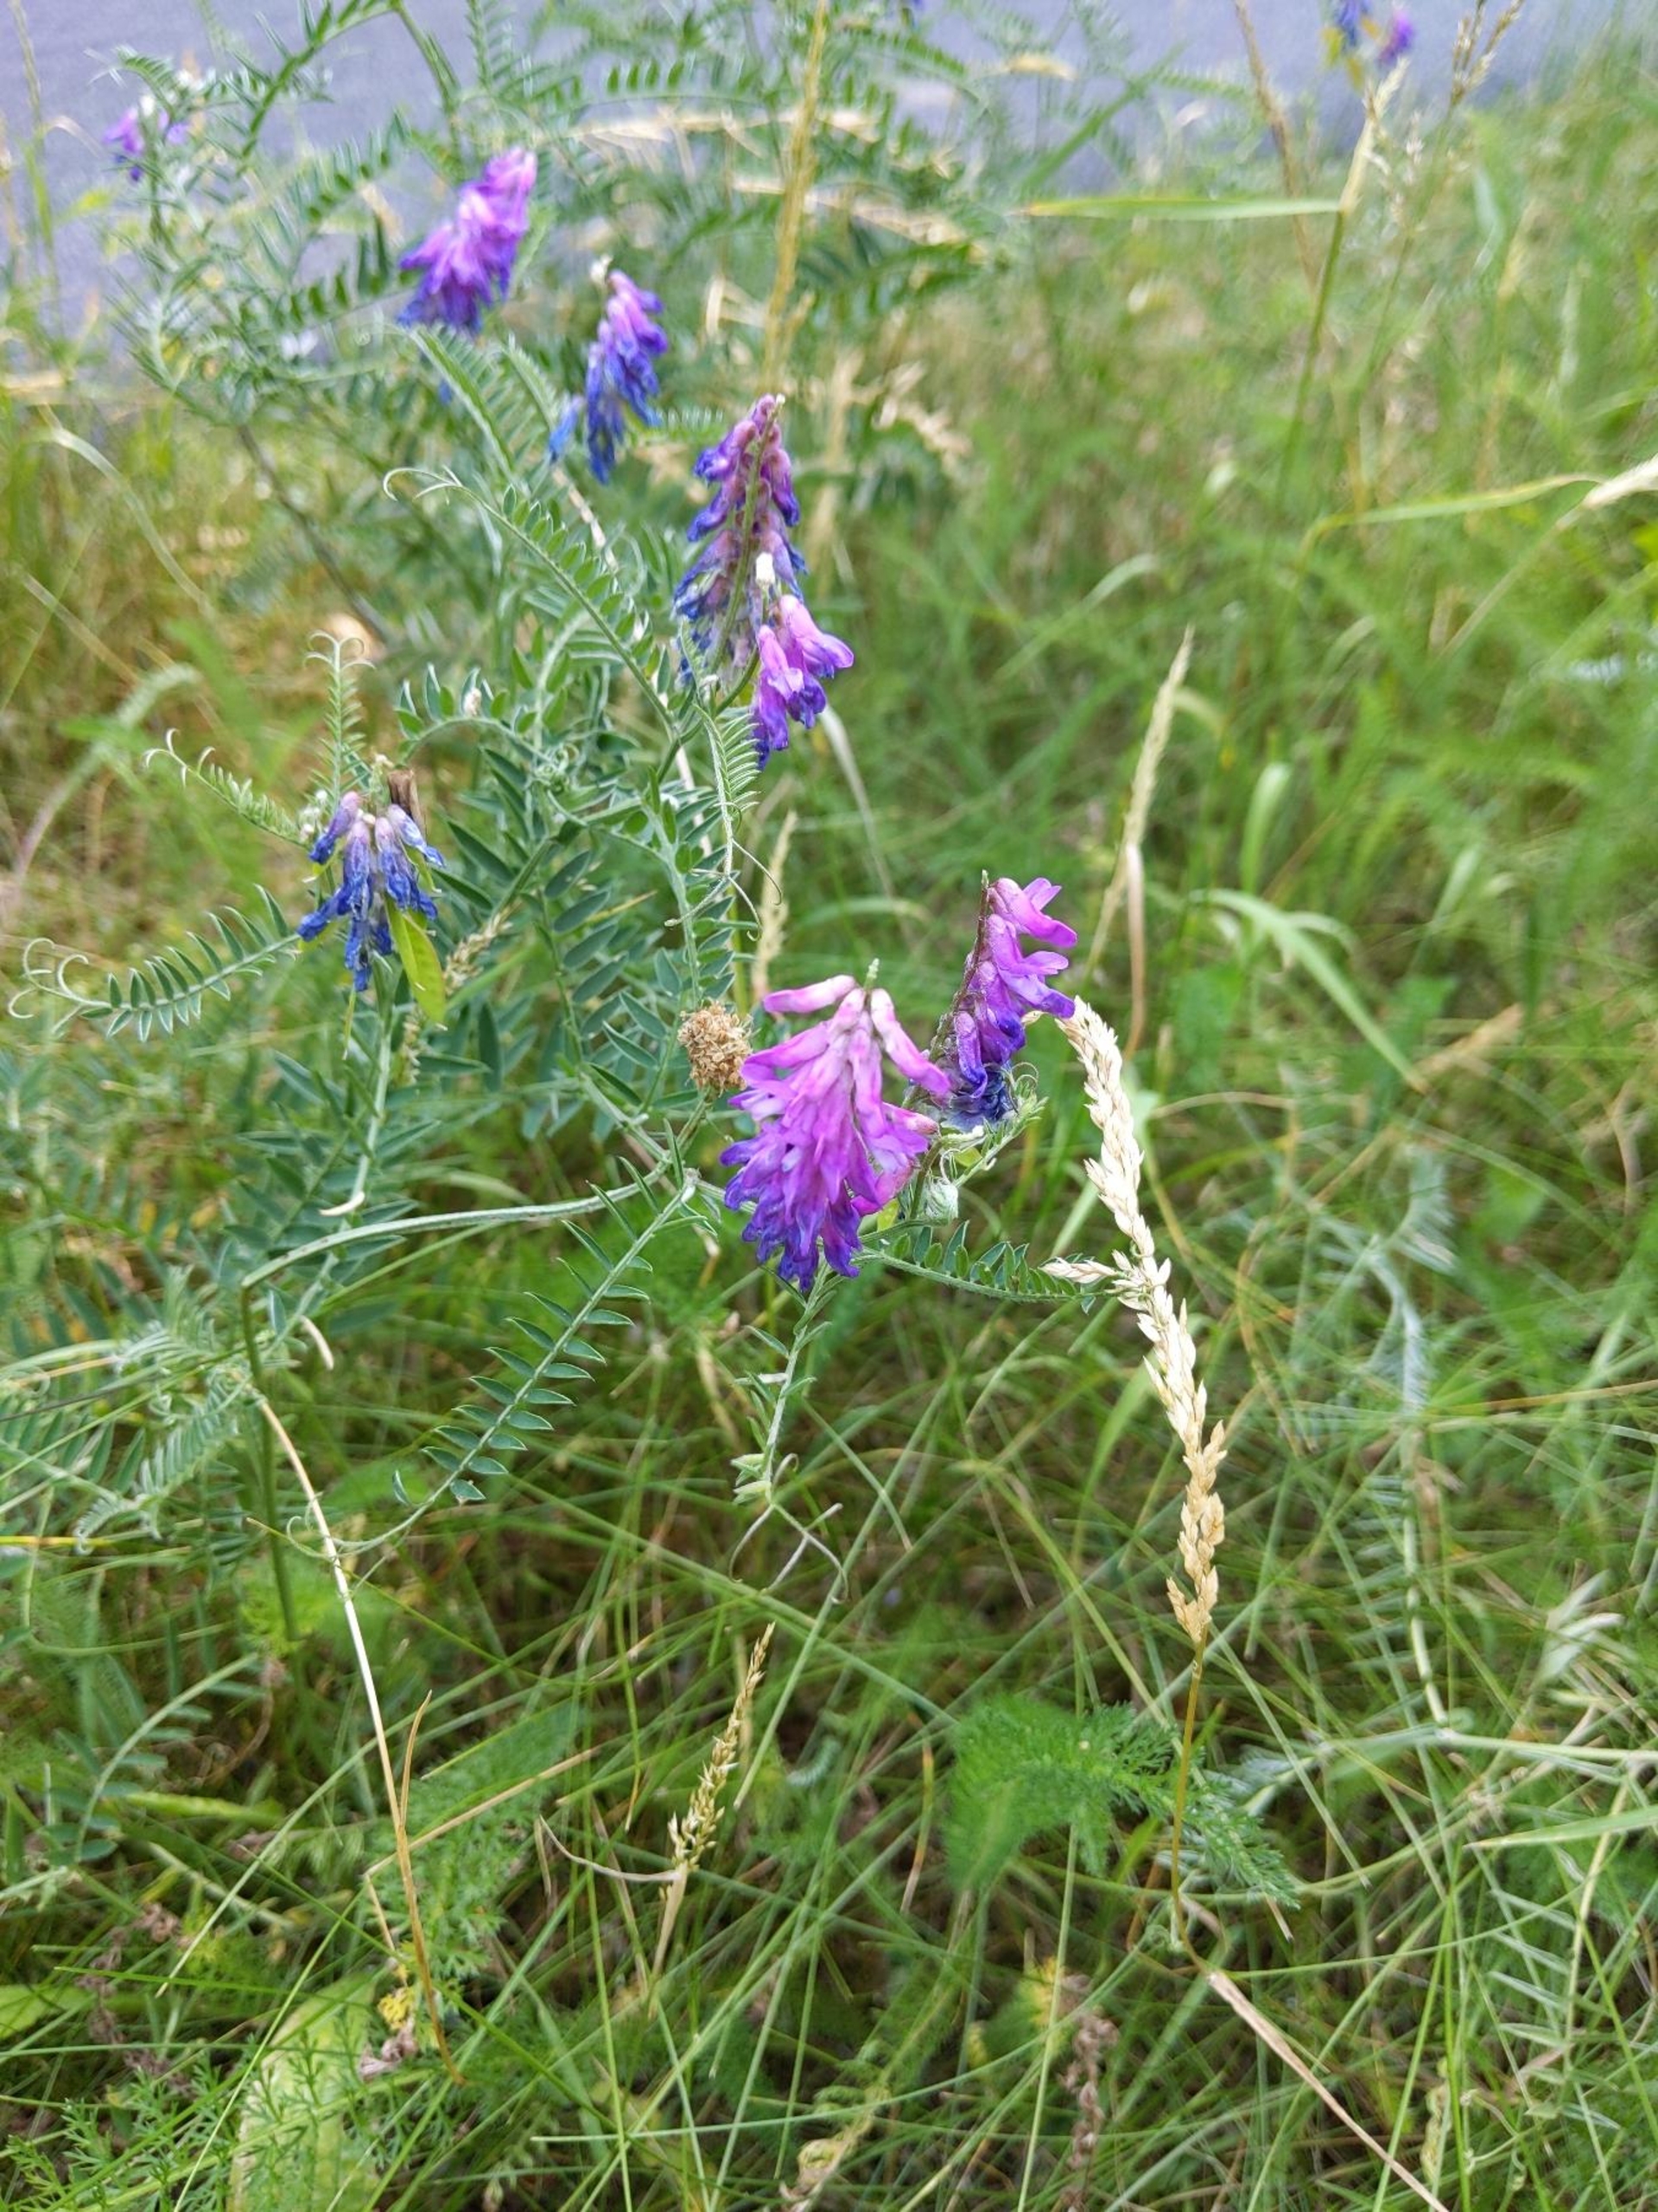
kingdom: Plantae
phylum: Tracheophyta
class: Magnoliopsida
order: Fabales
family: Fabaceae
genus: Vicia
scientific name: Vicia cracca
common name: Muse-vikke
